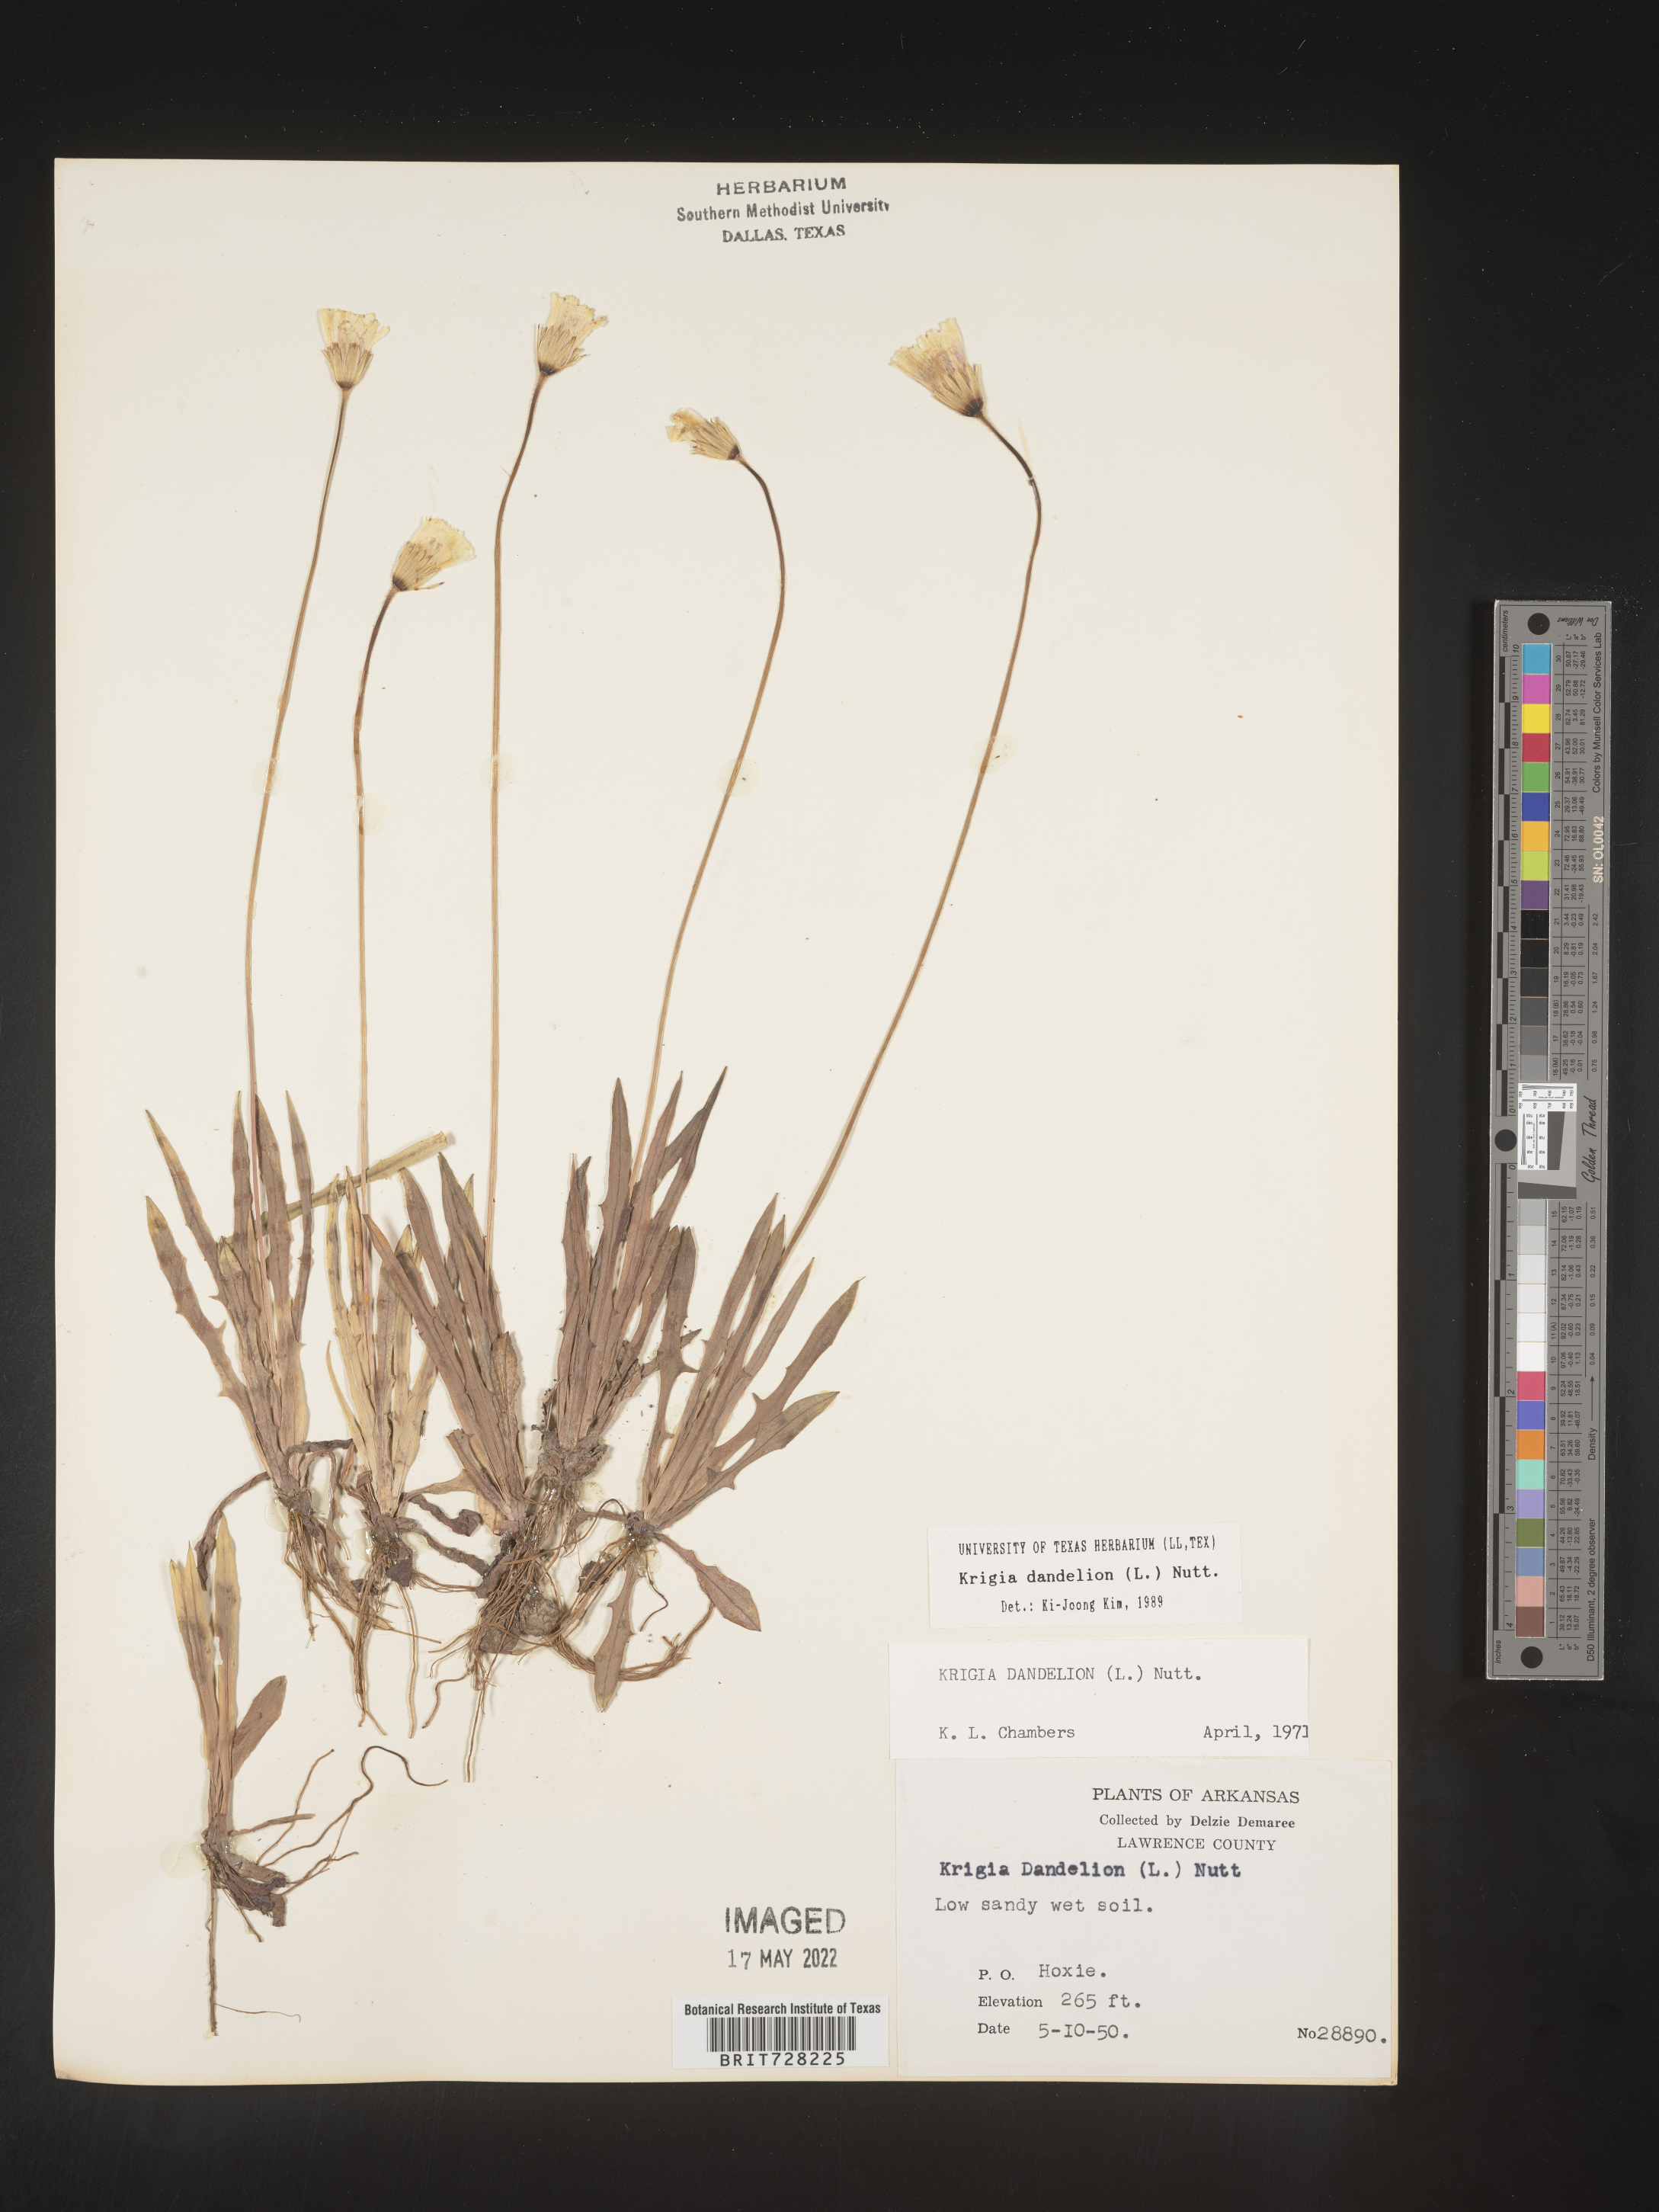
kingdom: Plantae
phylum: Tracheophyta
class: Magnoliopsida
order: Asterales
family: Asteraceae
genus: Krigia
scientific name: Krigia dandelion
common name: Colonial dwarf-dandelion
